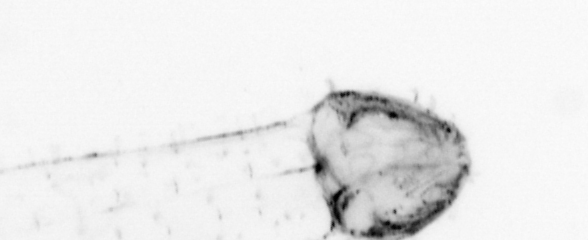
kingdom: Animalia
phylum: Chaetognatha
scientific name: Chaetognatha
